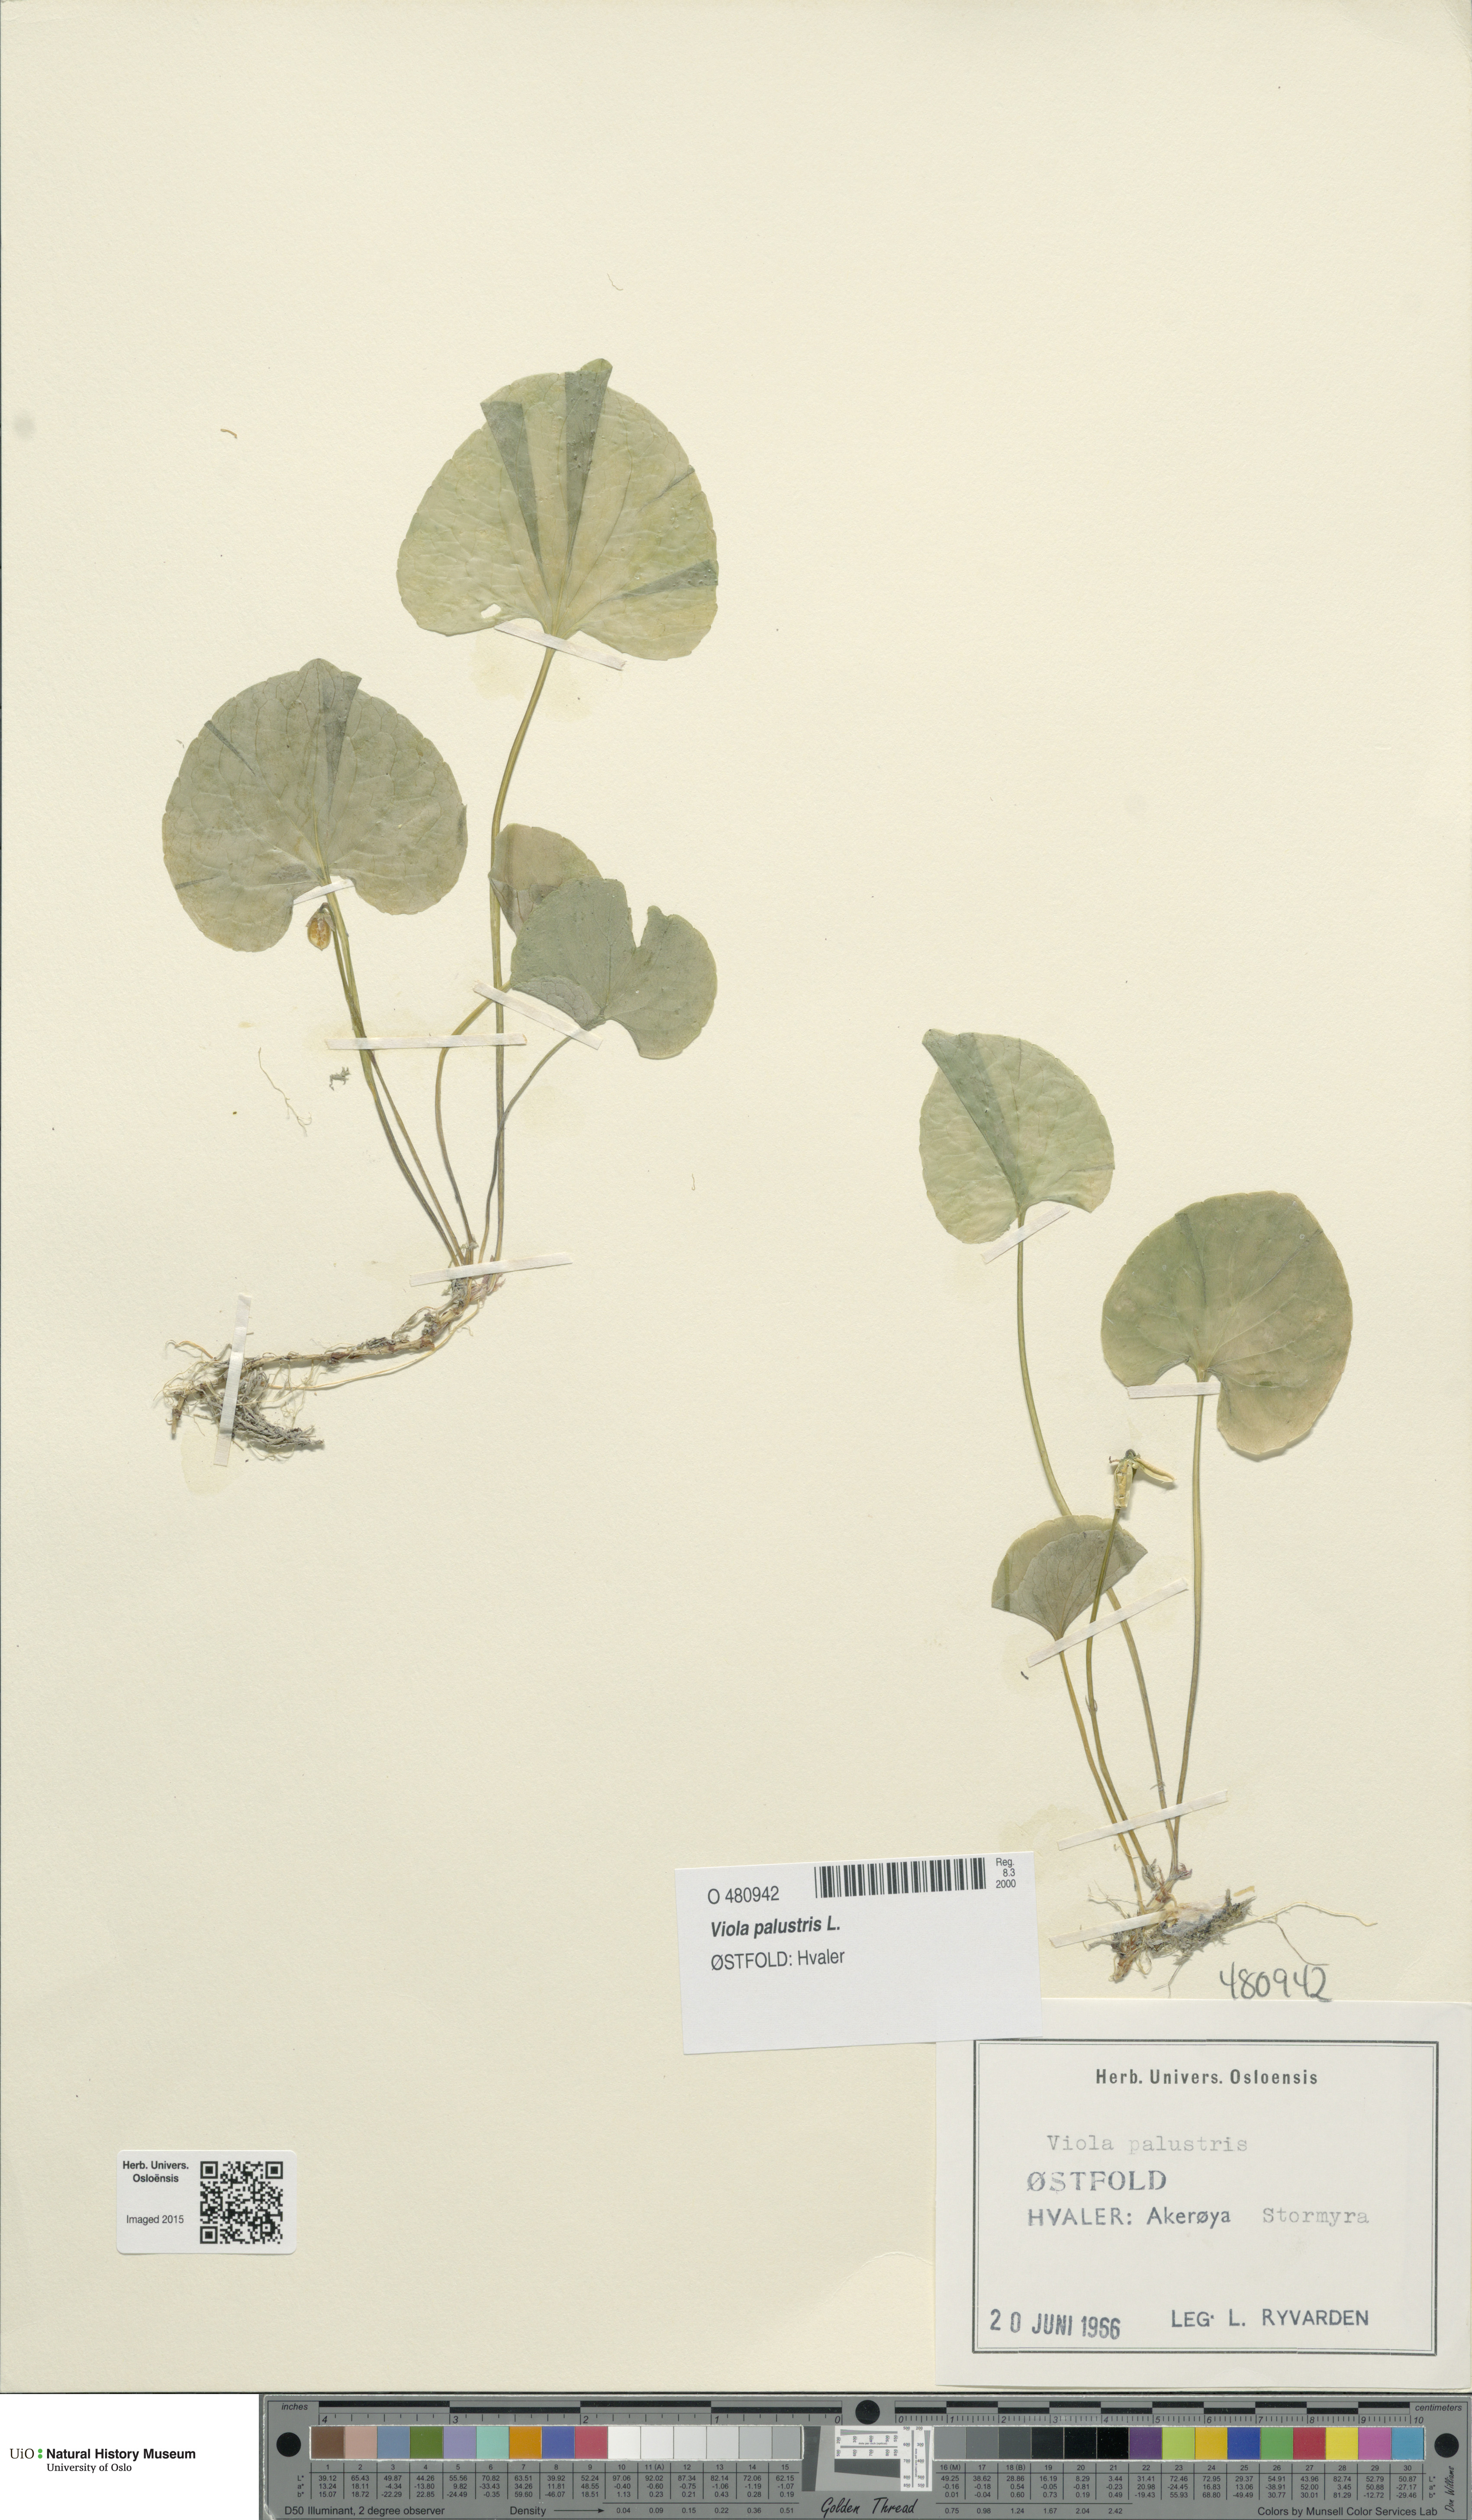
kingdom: Plantae
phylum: Tracheophyta
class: Magnoliopsida
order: Malpighiales
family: Violaceae
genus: Viola
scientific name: Viola palustris
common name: Marsh violet
